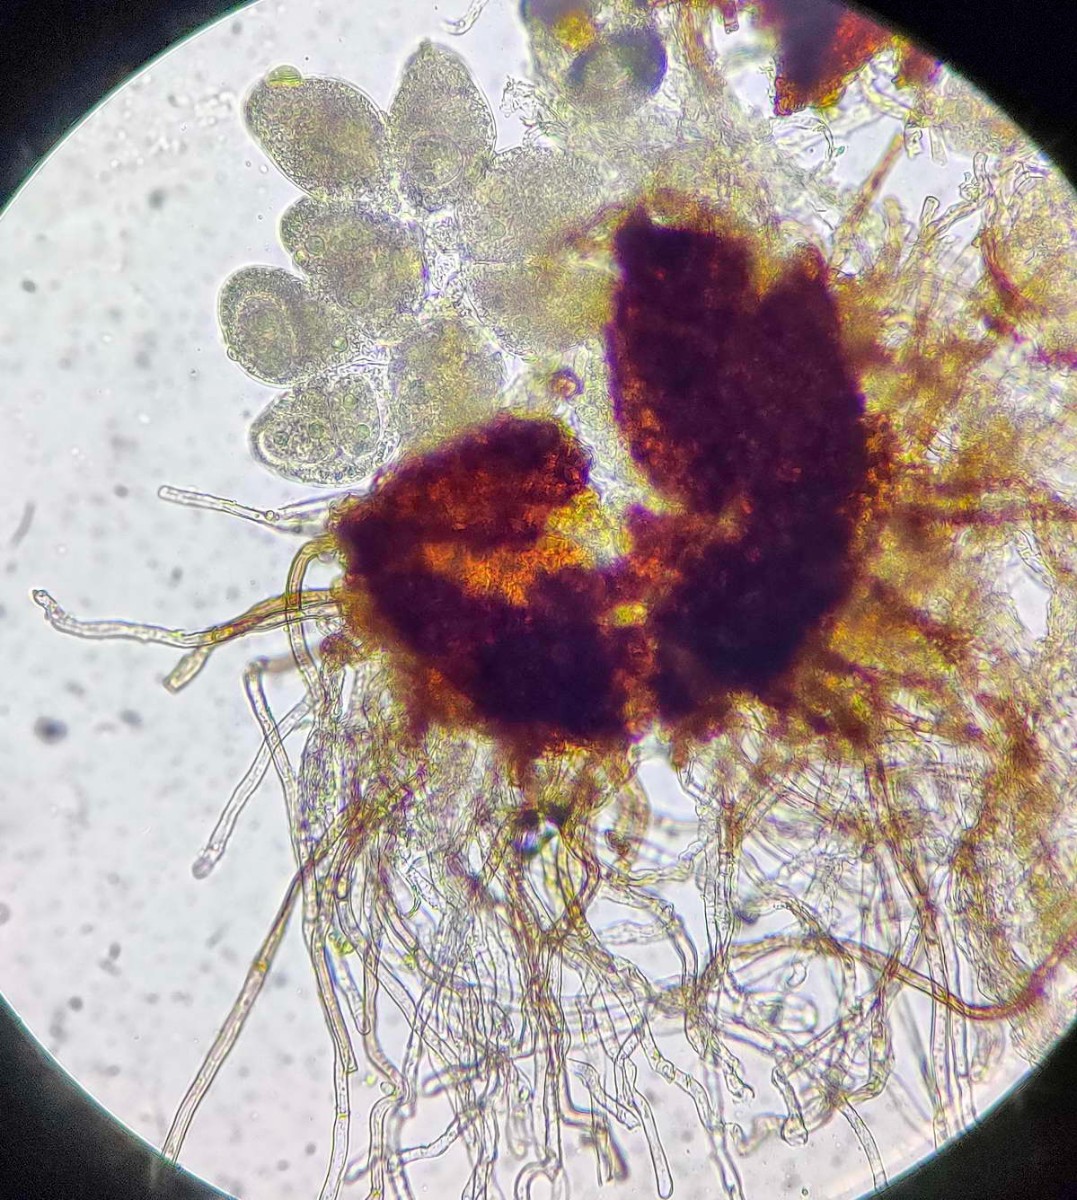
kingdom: Fungi
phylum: Ascomycota
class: Leotiomycetes
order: Helotiales
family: Erysiphaceae
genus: Golovinomyces
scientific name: Golovinomyces inulae
